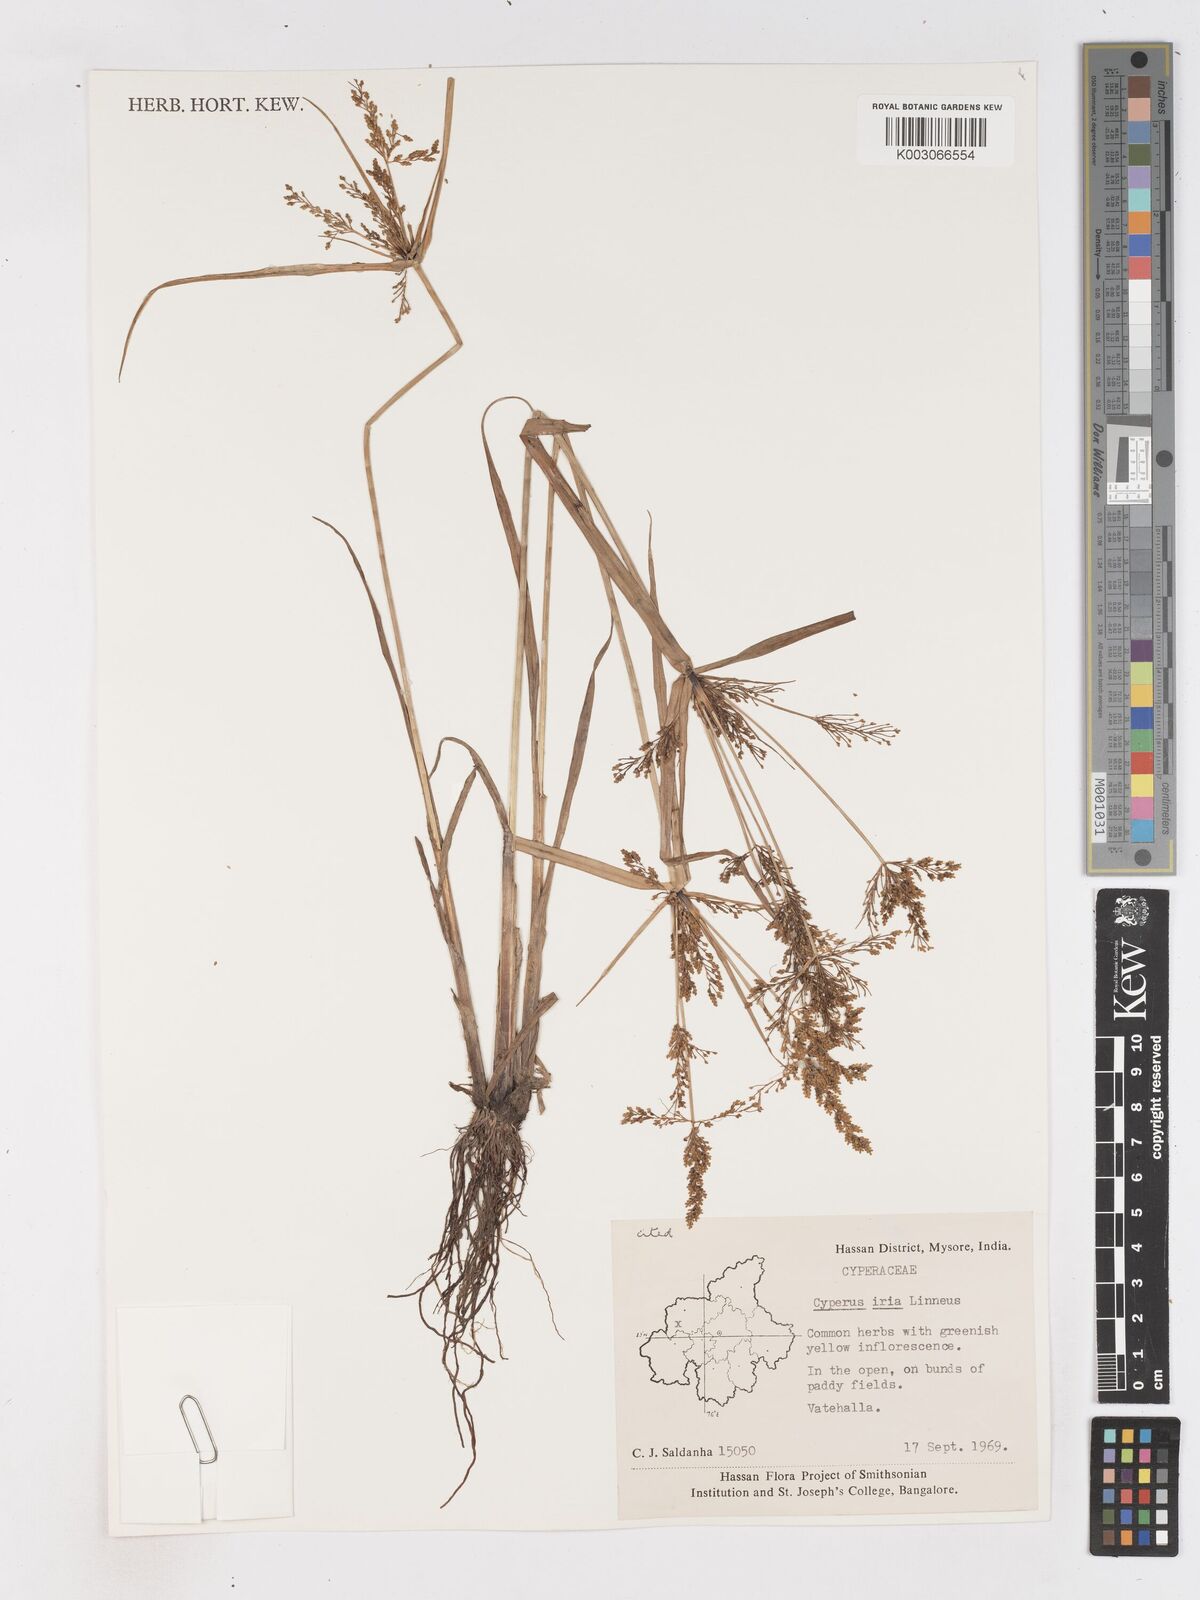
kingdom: Plantae
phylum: Tracheophyta
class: Liliopsida
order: Poales
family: Cyperaceae
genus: Cyperus
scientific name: Cyperus iria
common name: Ricefield flatsedge
